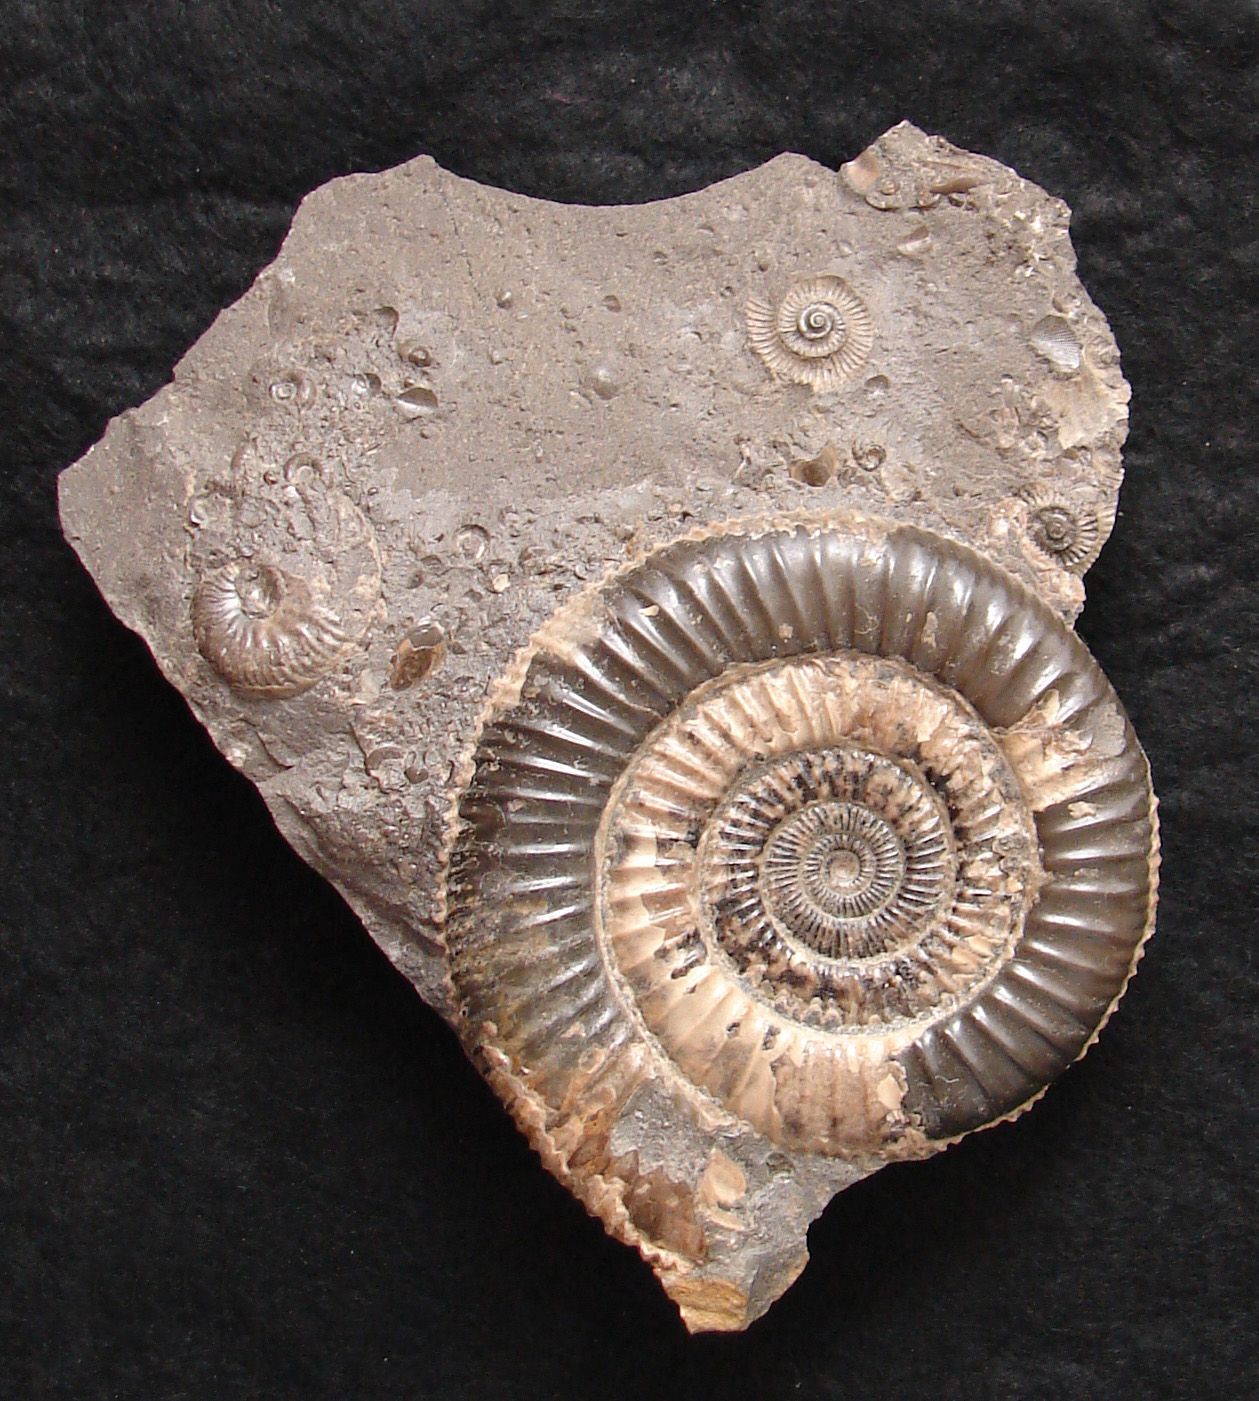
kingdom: Animalia
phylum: Mollusca
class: Cephalopoda
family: Dactylioceratidae
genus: Dactylioceras
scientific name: Dactylioceras athleticum
